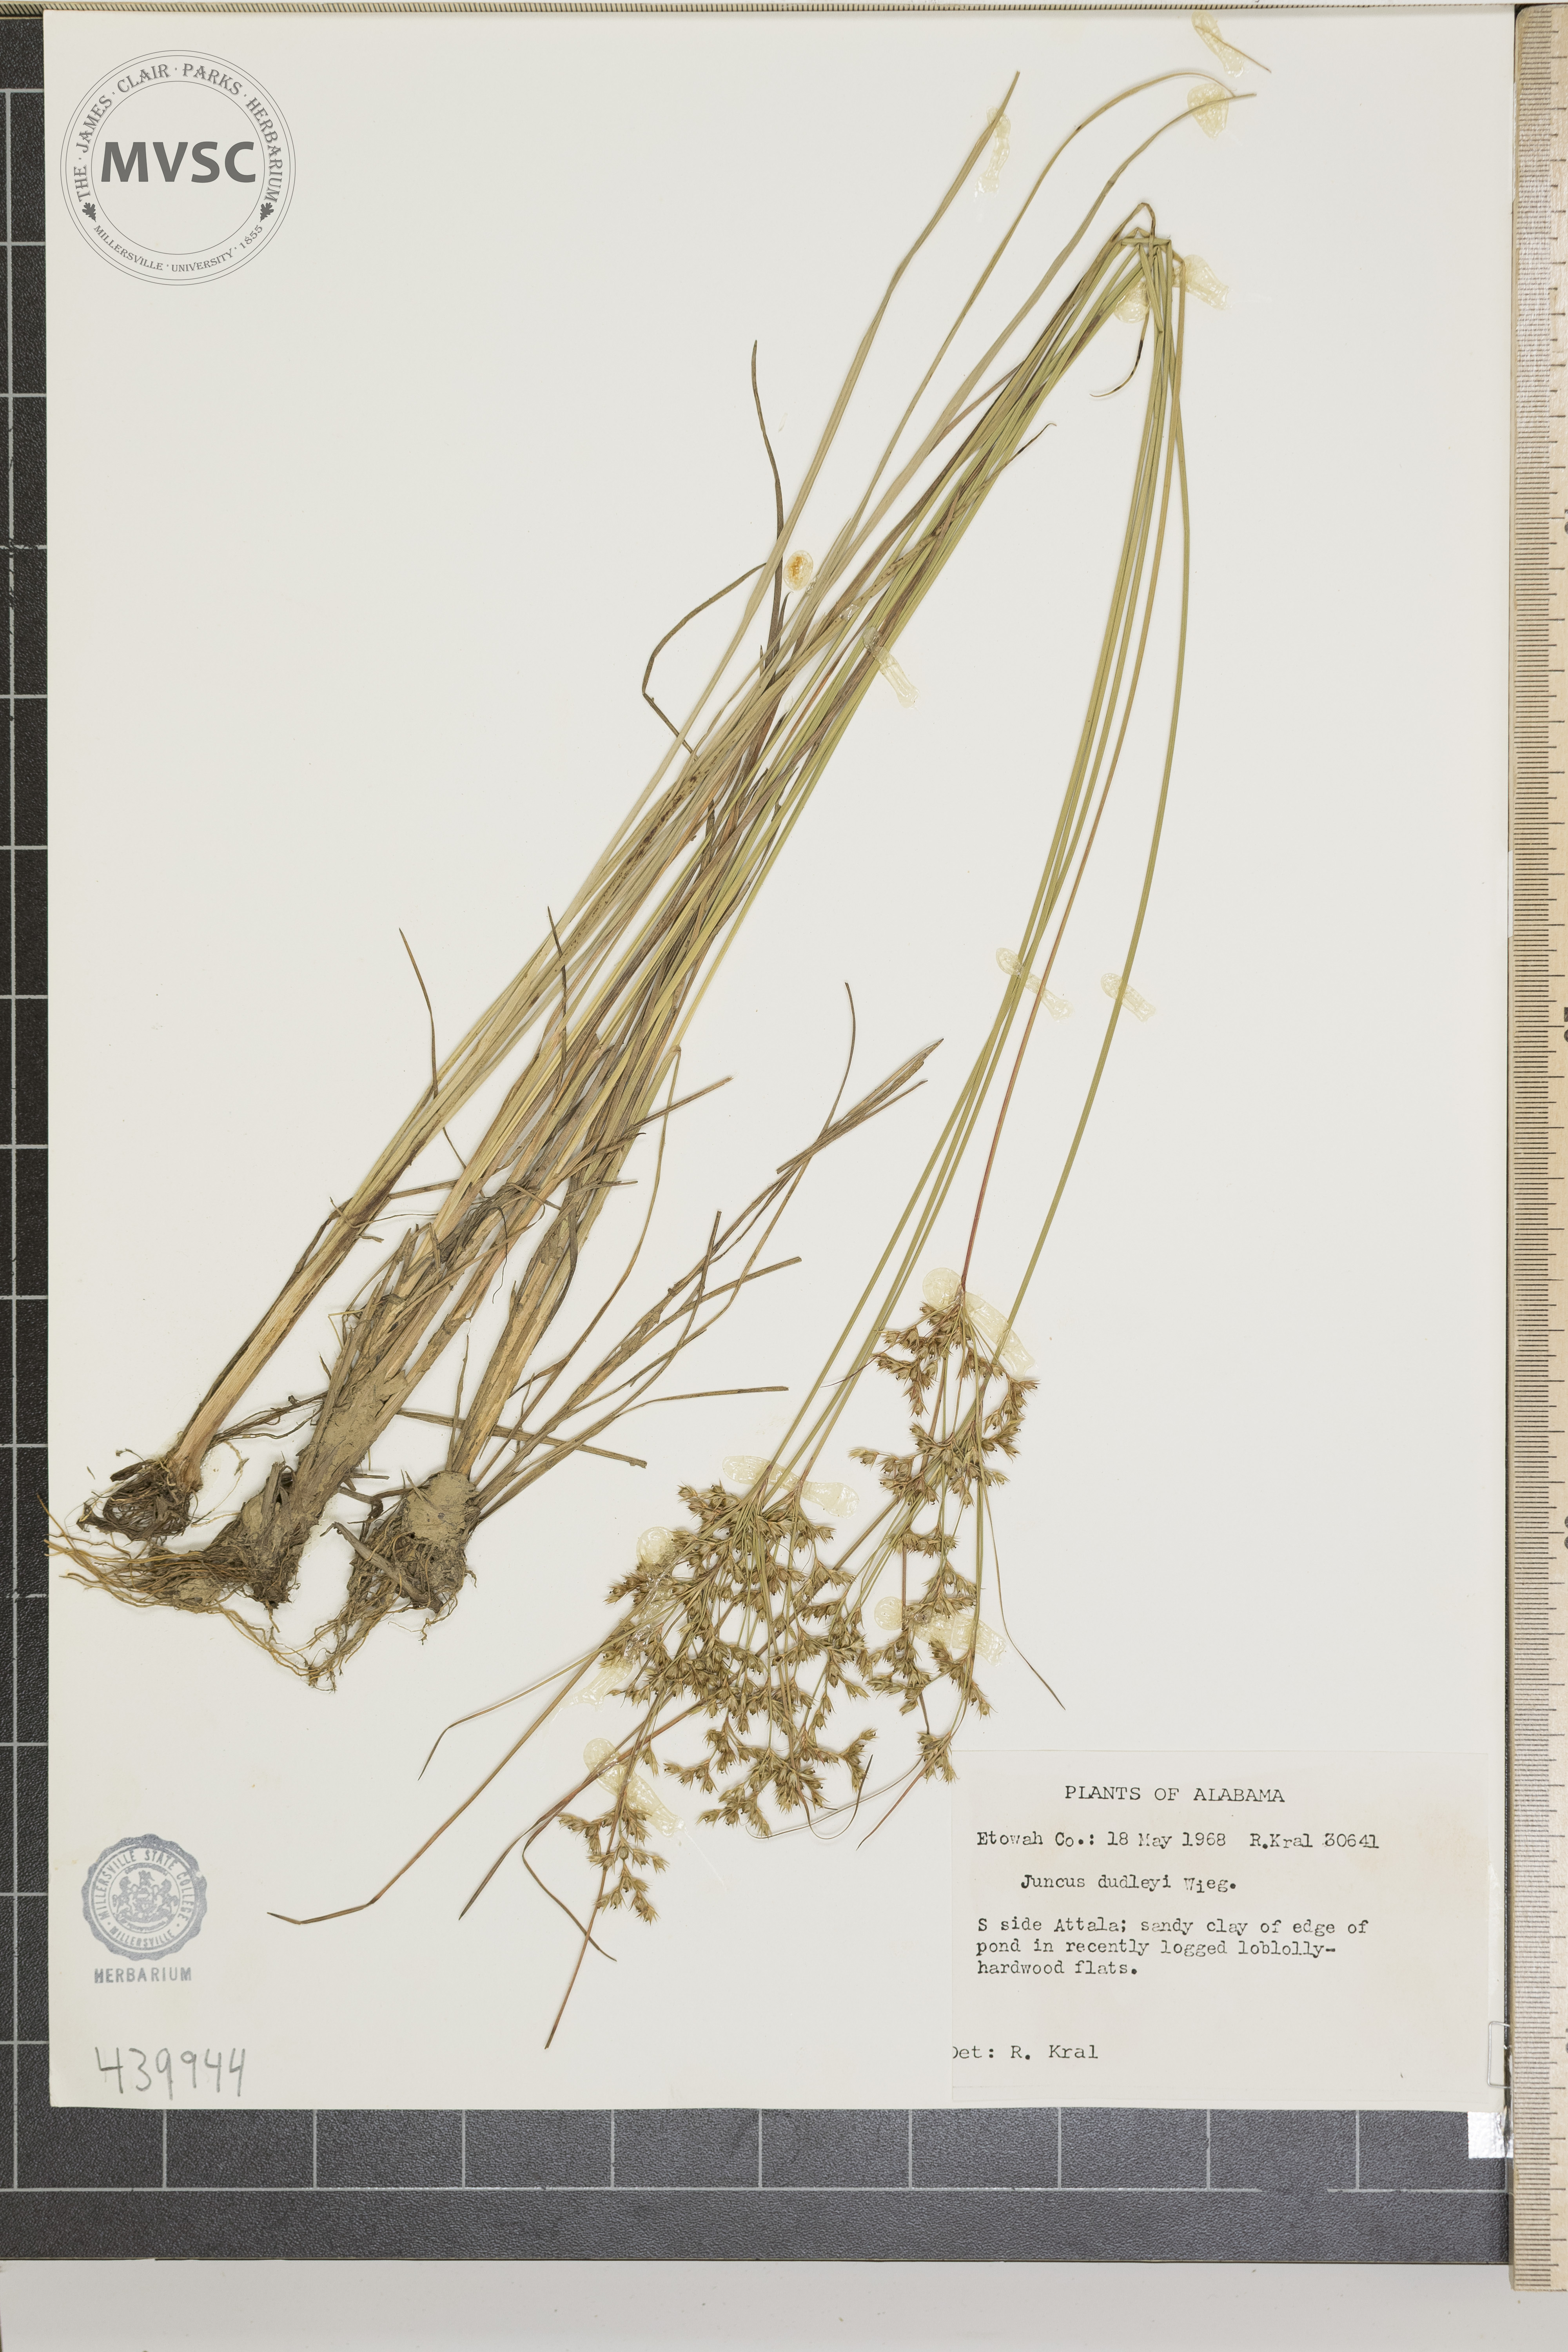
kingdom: Plantae
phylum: Tracheophyta
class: Liliopsida
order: Poales
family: Juncaceae
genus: Juncus
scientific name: Juncus dudleyi
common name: Dudley's rush
